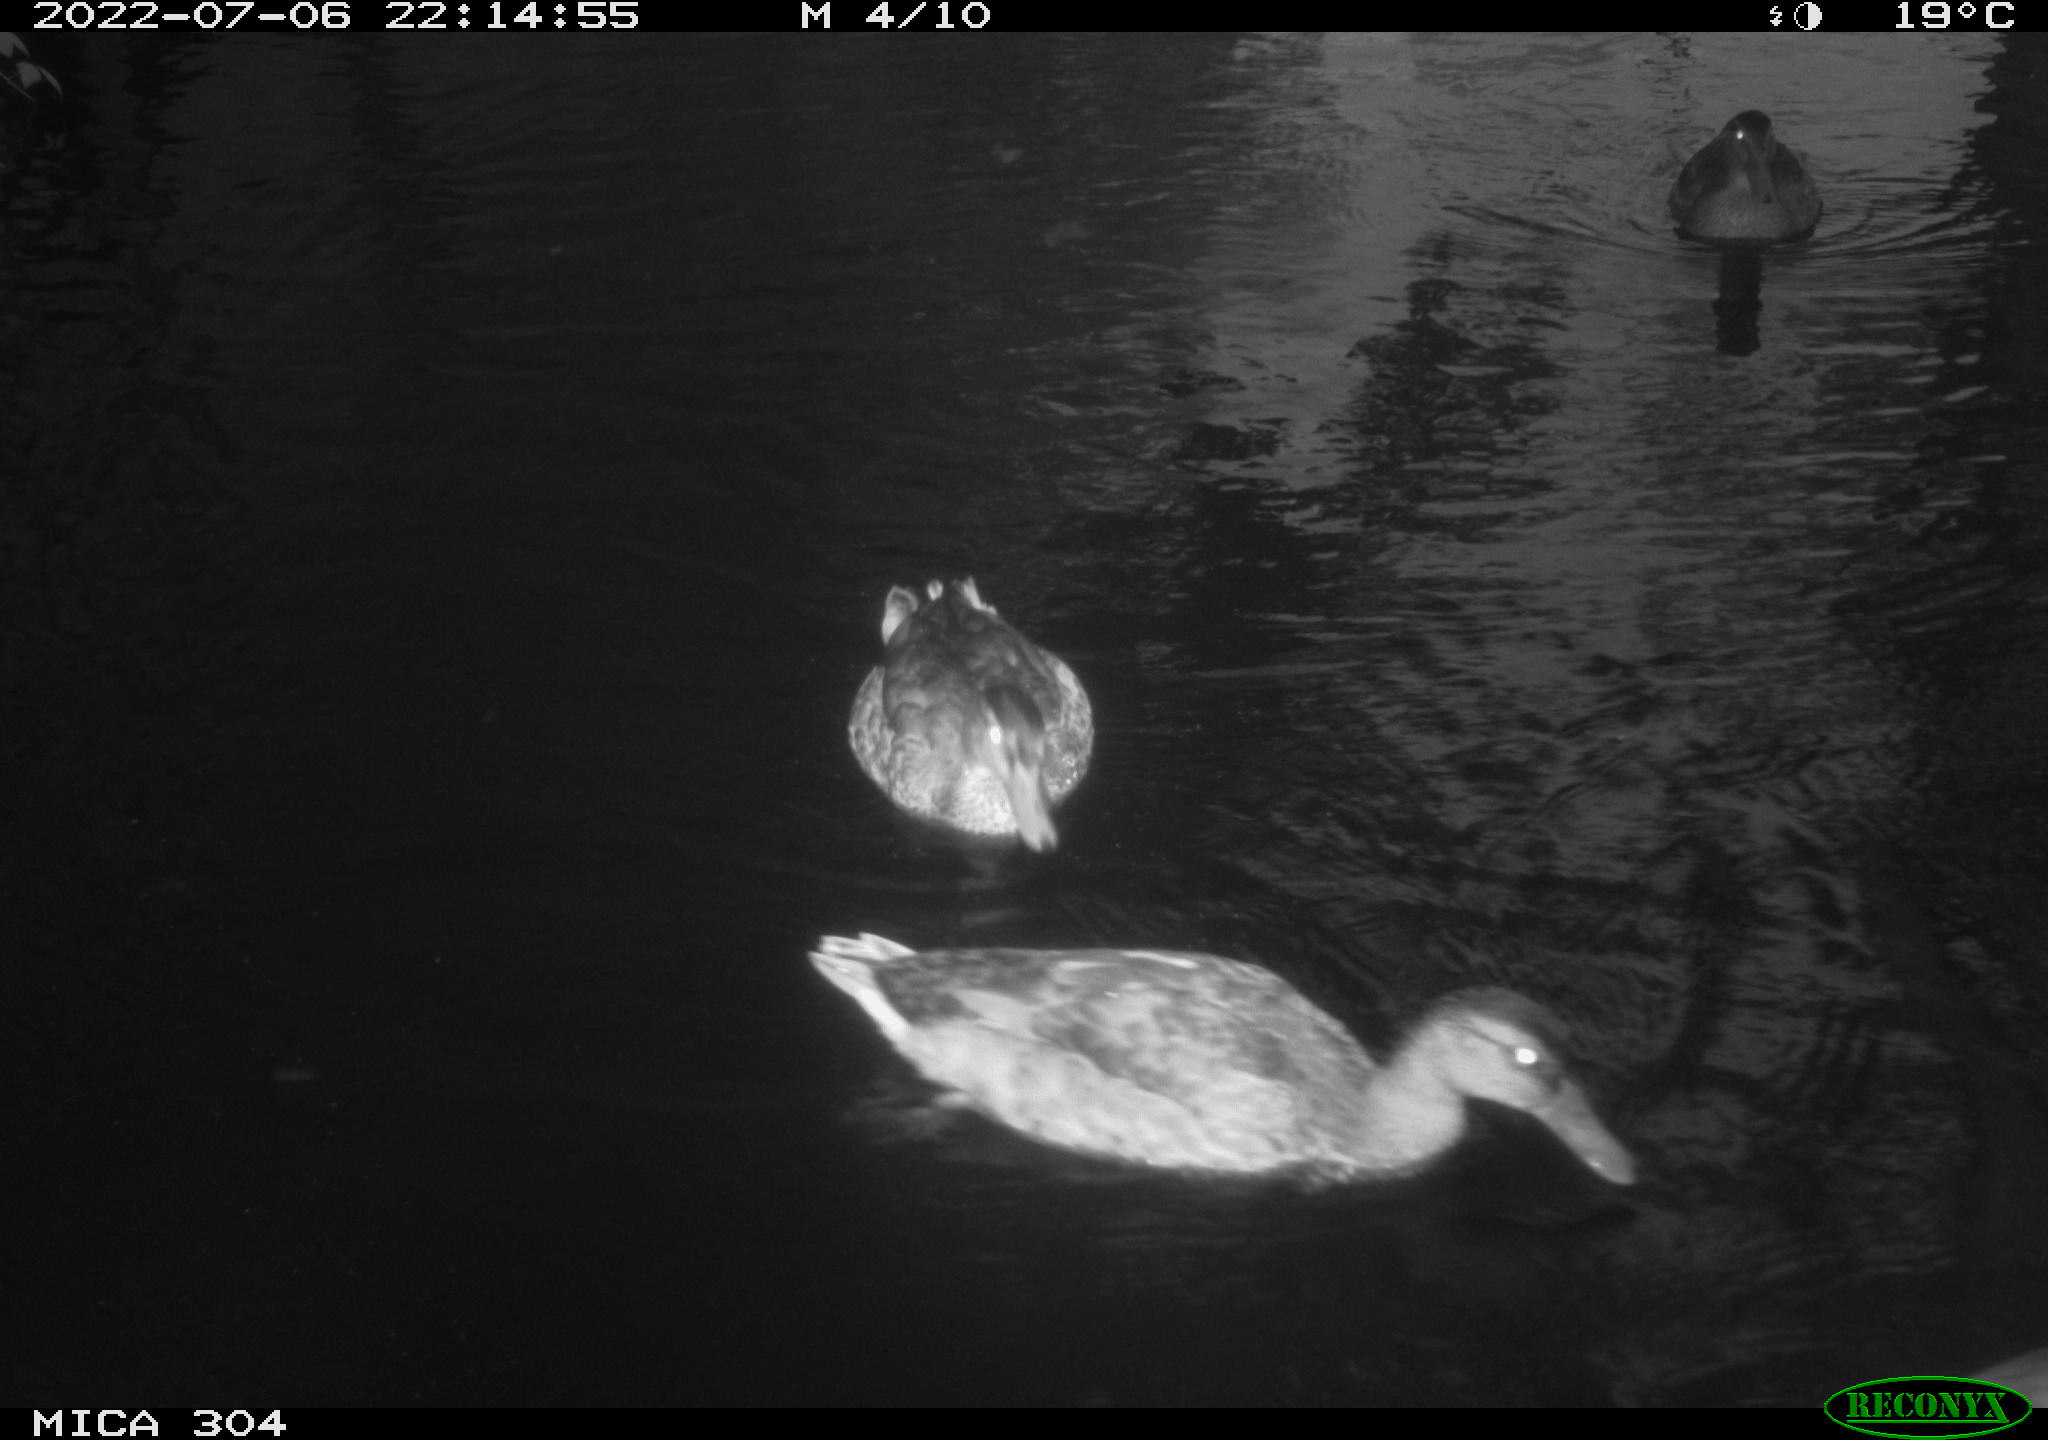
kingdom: Animalia
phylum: Chordata
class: Aves
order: Anseriformes
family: Anatidae
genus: Anas
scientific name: Anas platyrhynchos
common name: Mallard
